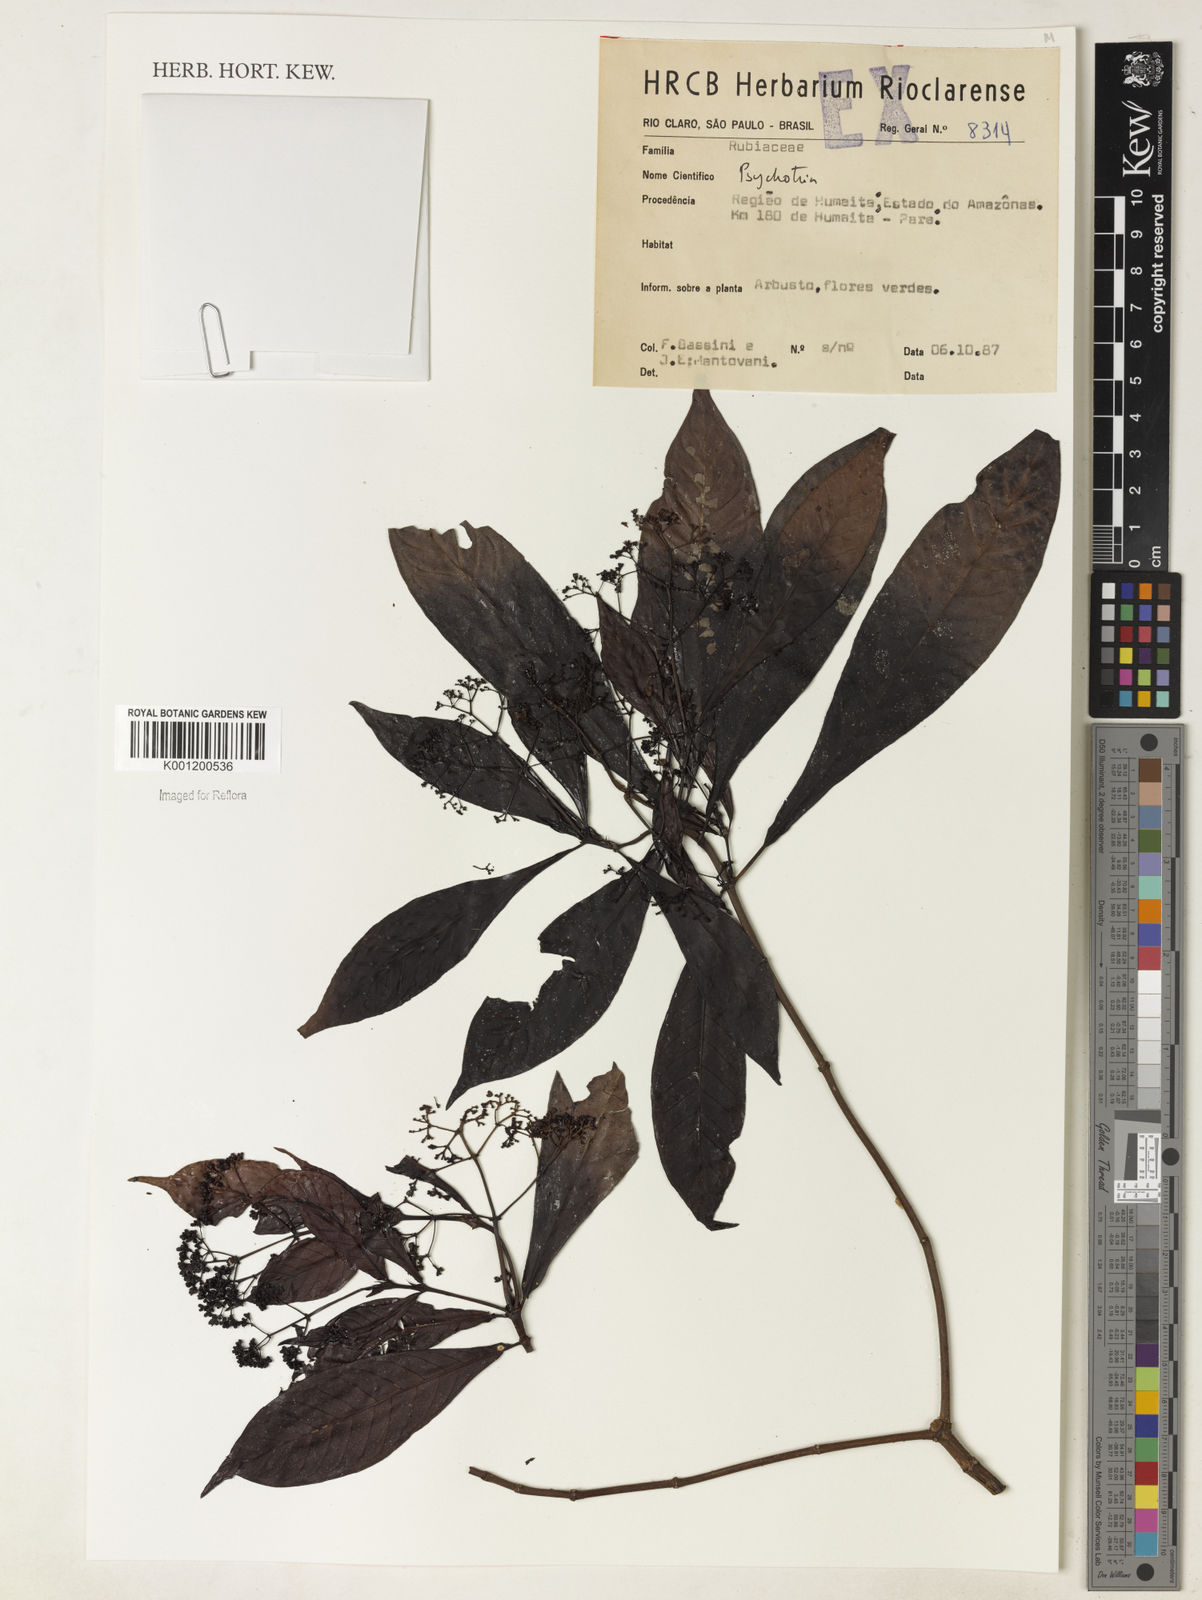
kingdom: Plantae
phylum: Tracheophyta
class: Magnoliopsida
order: Gentianales
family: Rubiaceae
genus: Psychotria
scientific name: Psychotria
